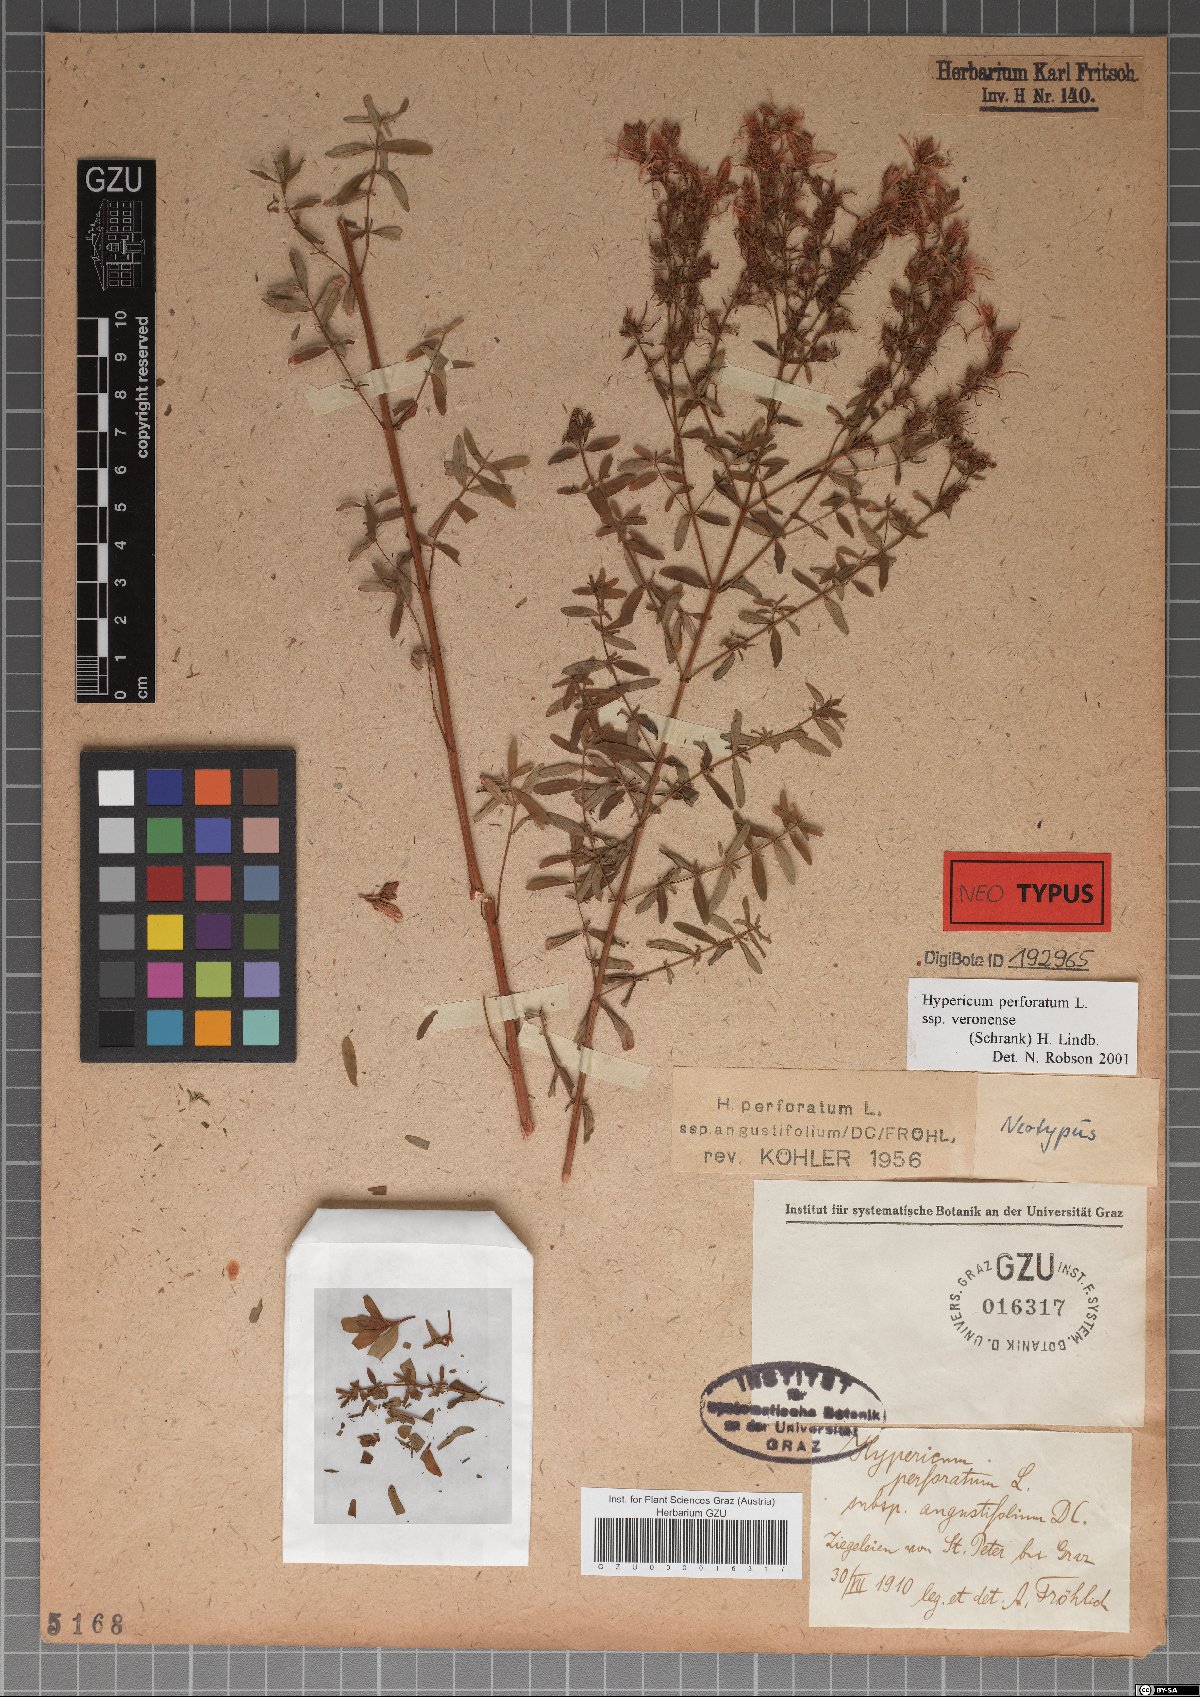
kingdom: Plantae
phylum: Tracheophyta
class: Magnoliopsida
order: Malpighiales
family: Hypericaceae
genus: Hypericum
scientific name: Hypericum perforatum
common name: Common st. johnswort
